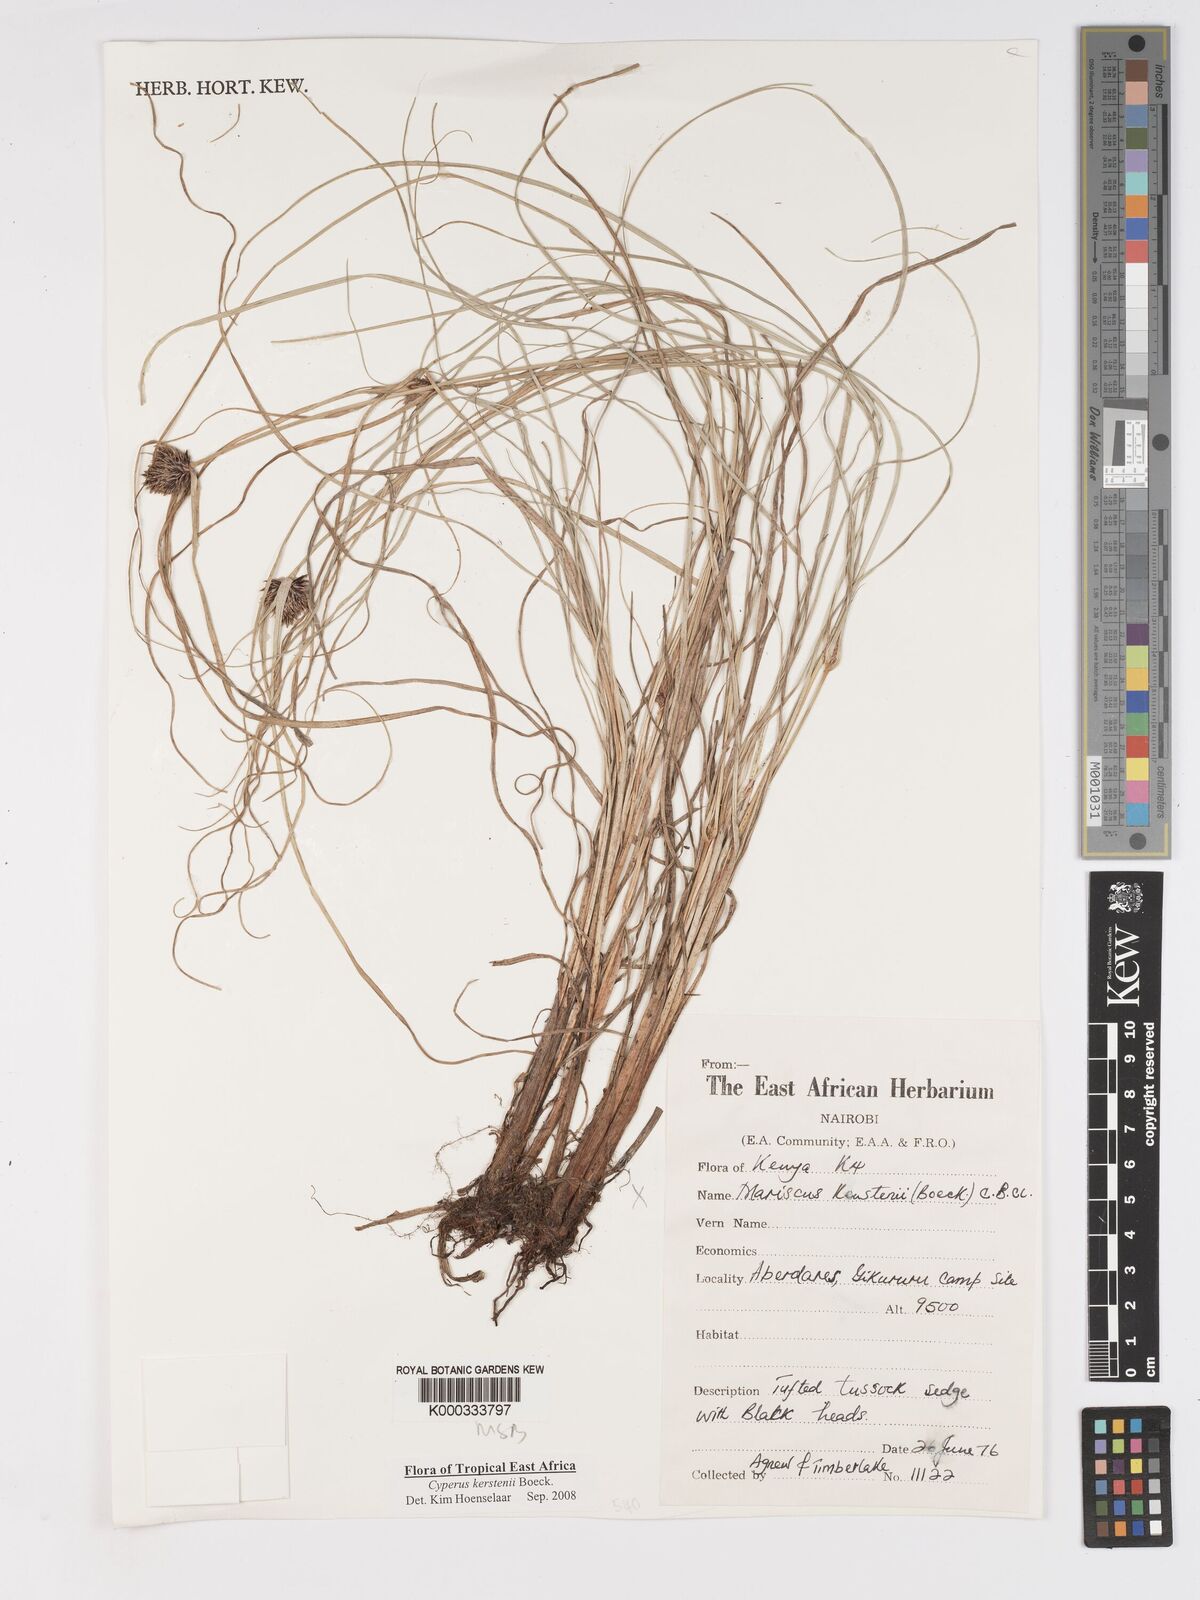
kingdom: Plantae
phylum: Tracheophyta
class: Liliopsida
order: Poales
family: Cyperaceae
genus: Cyperus
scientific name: Cyperus kerstenii
